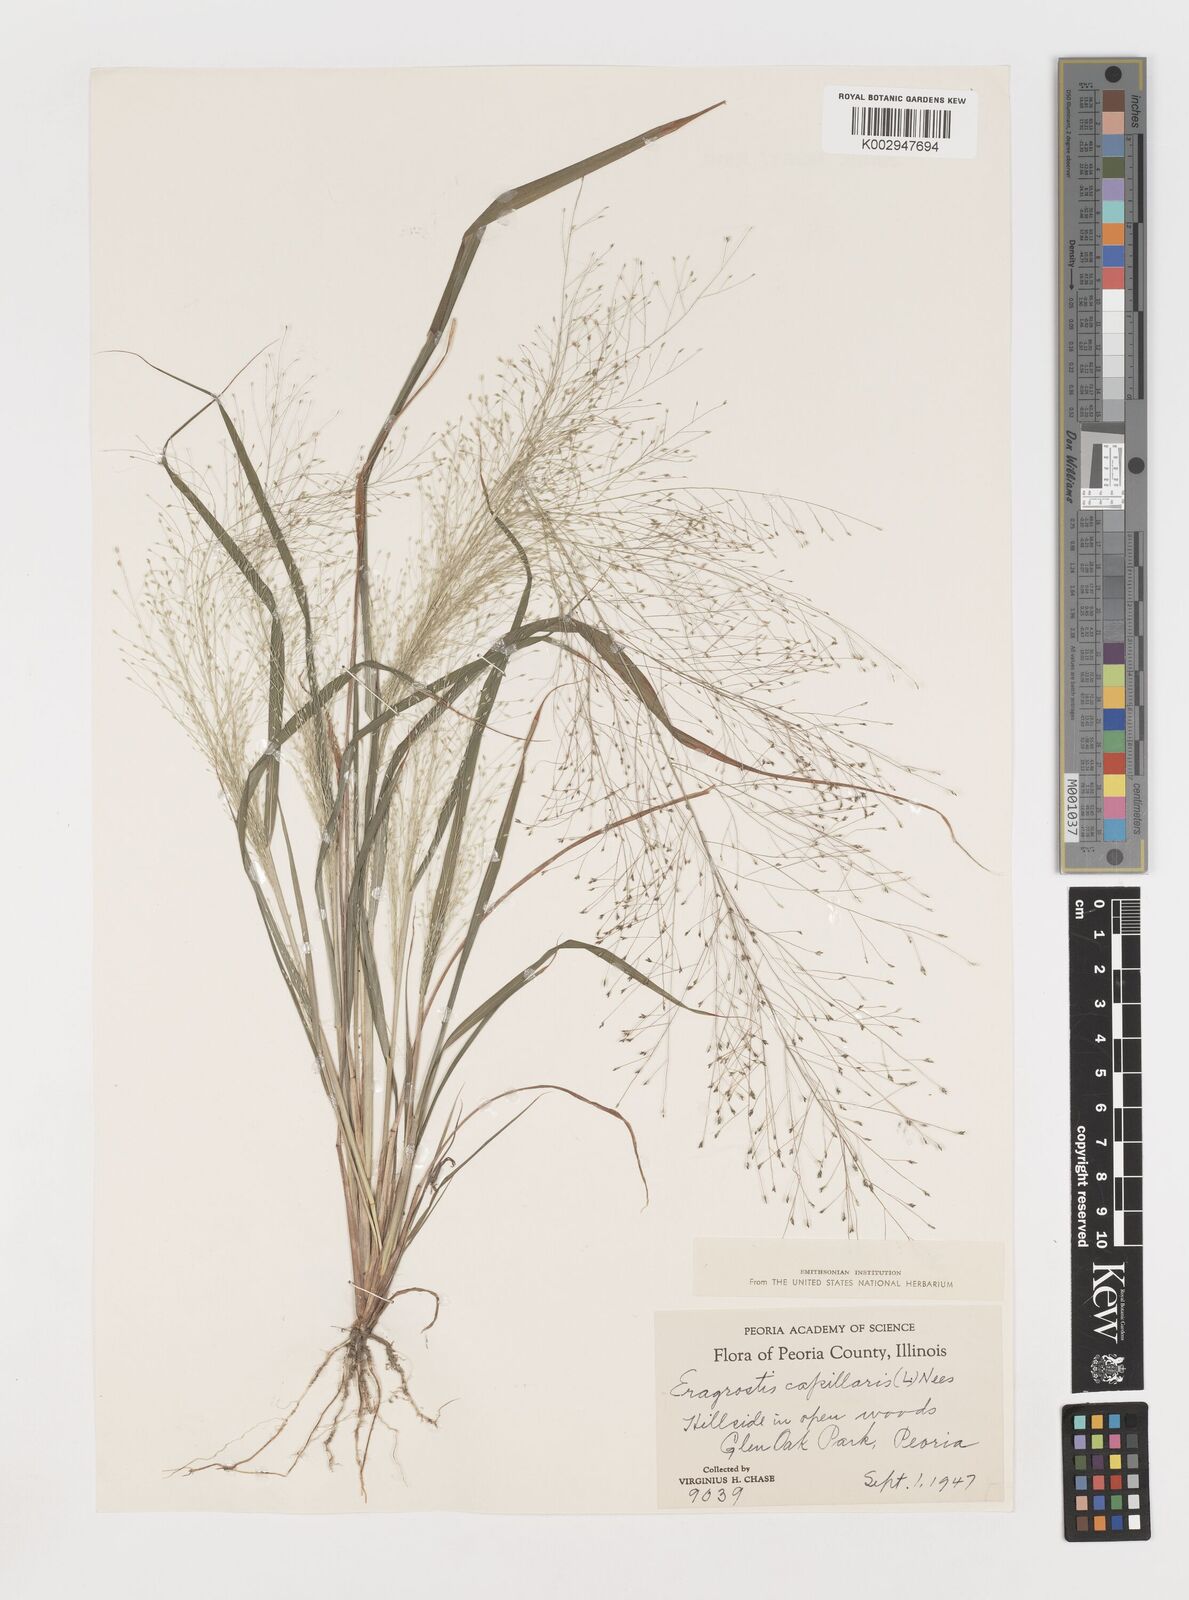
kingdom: Plantae
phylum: Tracheophyta
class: Liliopsida
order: Poales
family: Poaceae
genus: Eragrostis
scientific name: Eragrostis capillaris
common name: Hair-like lovegrass
